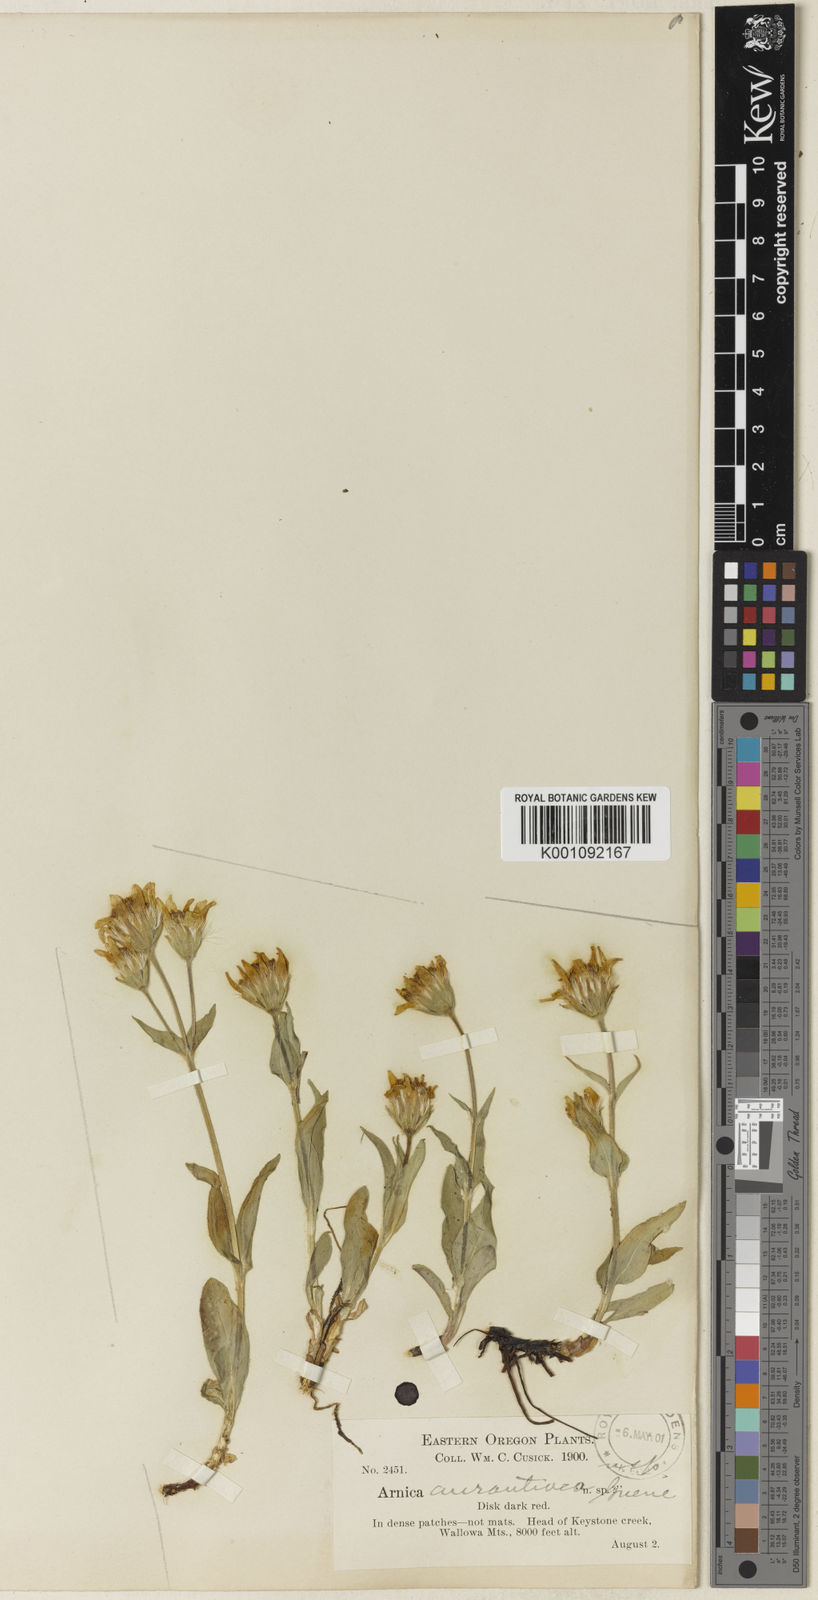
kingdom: Plantae
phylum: Tracheophyta
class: Magnoliopsida
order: Asterales
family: Asteraceae
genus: Arnica
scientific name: Arnica rydbergii
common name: Rydberg's arnica
